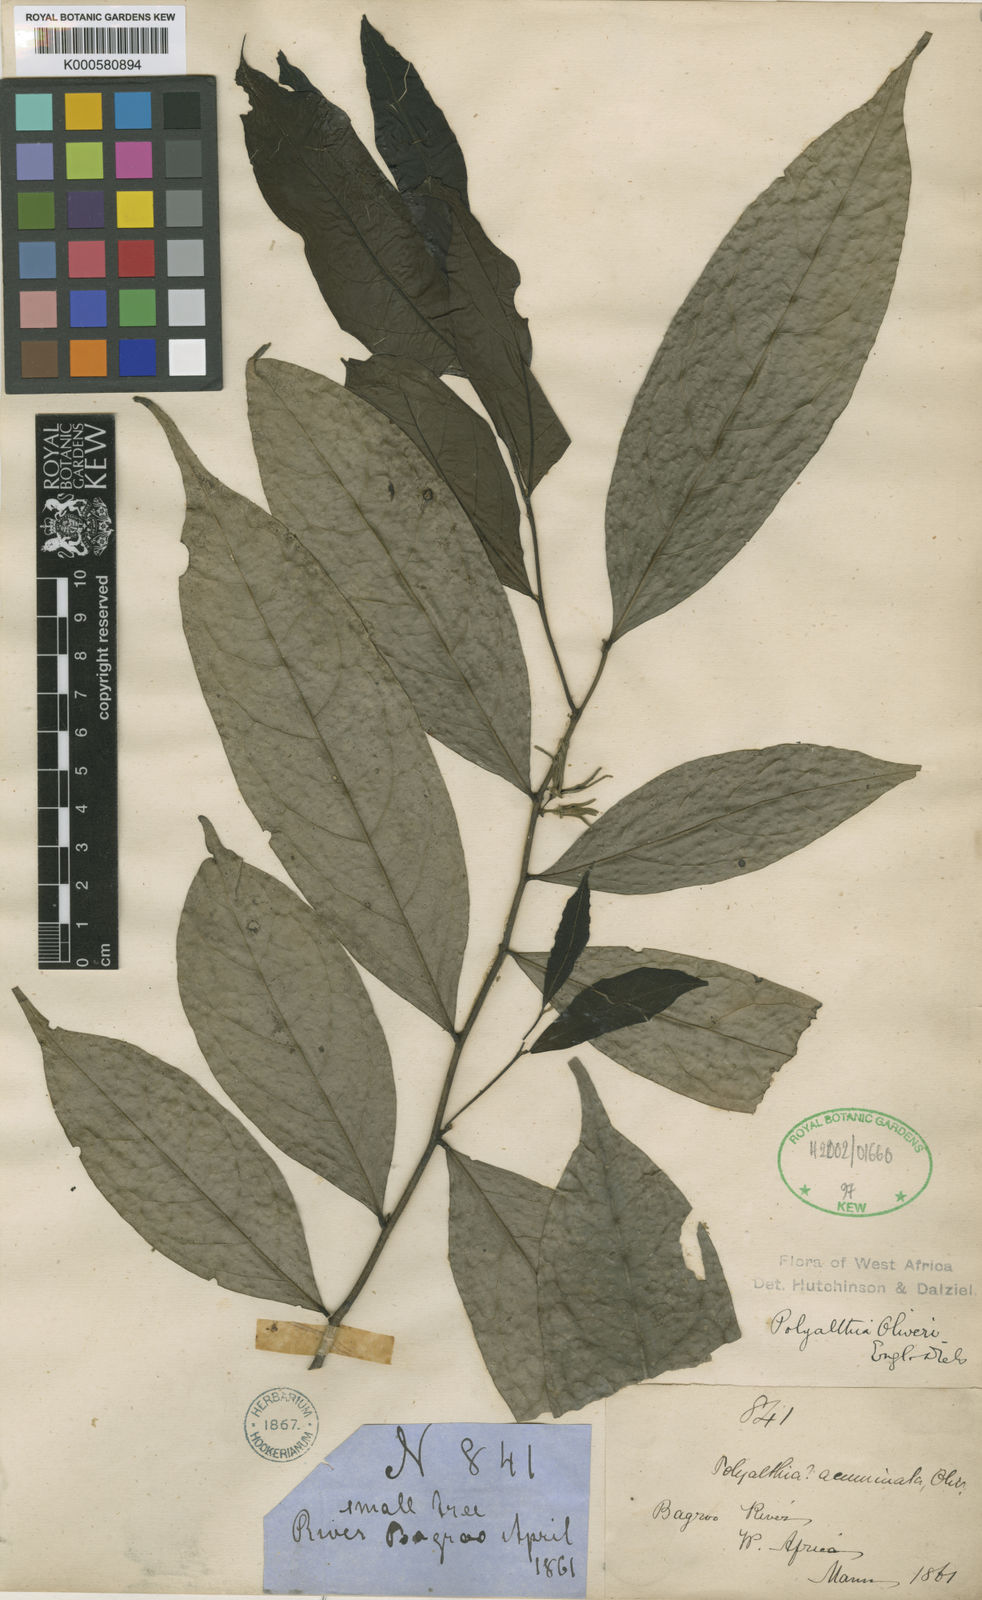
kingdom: Plantae
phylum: Tracheophyta
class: Magnoliopsida
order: Magnoliales
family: Annonaceae
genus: Greenwayodendron
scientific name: Greenwayodendron oliveri
